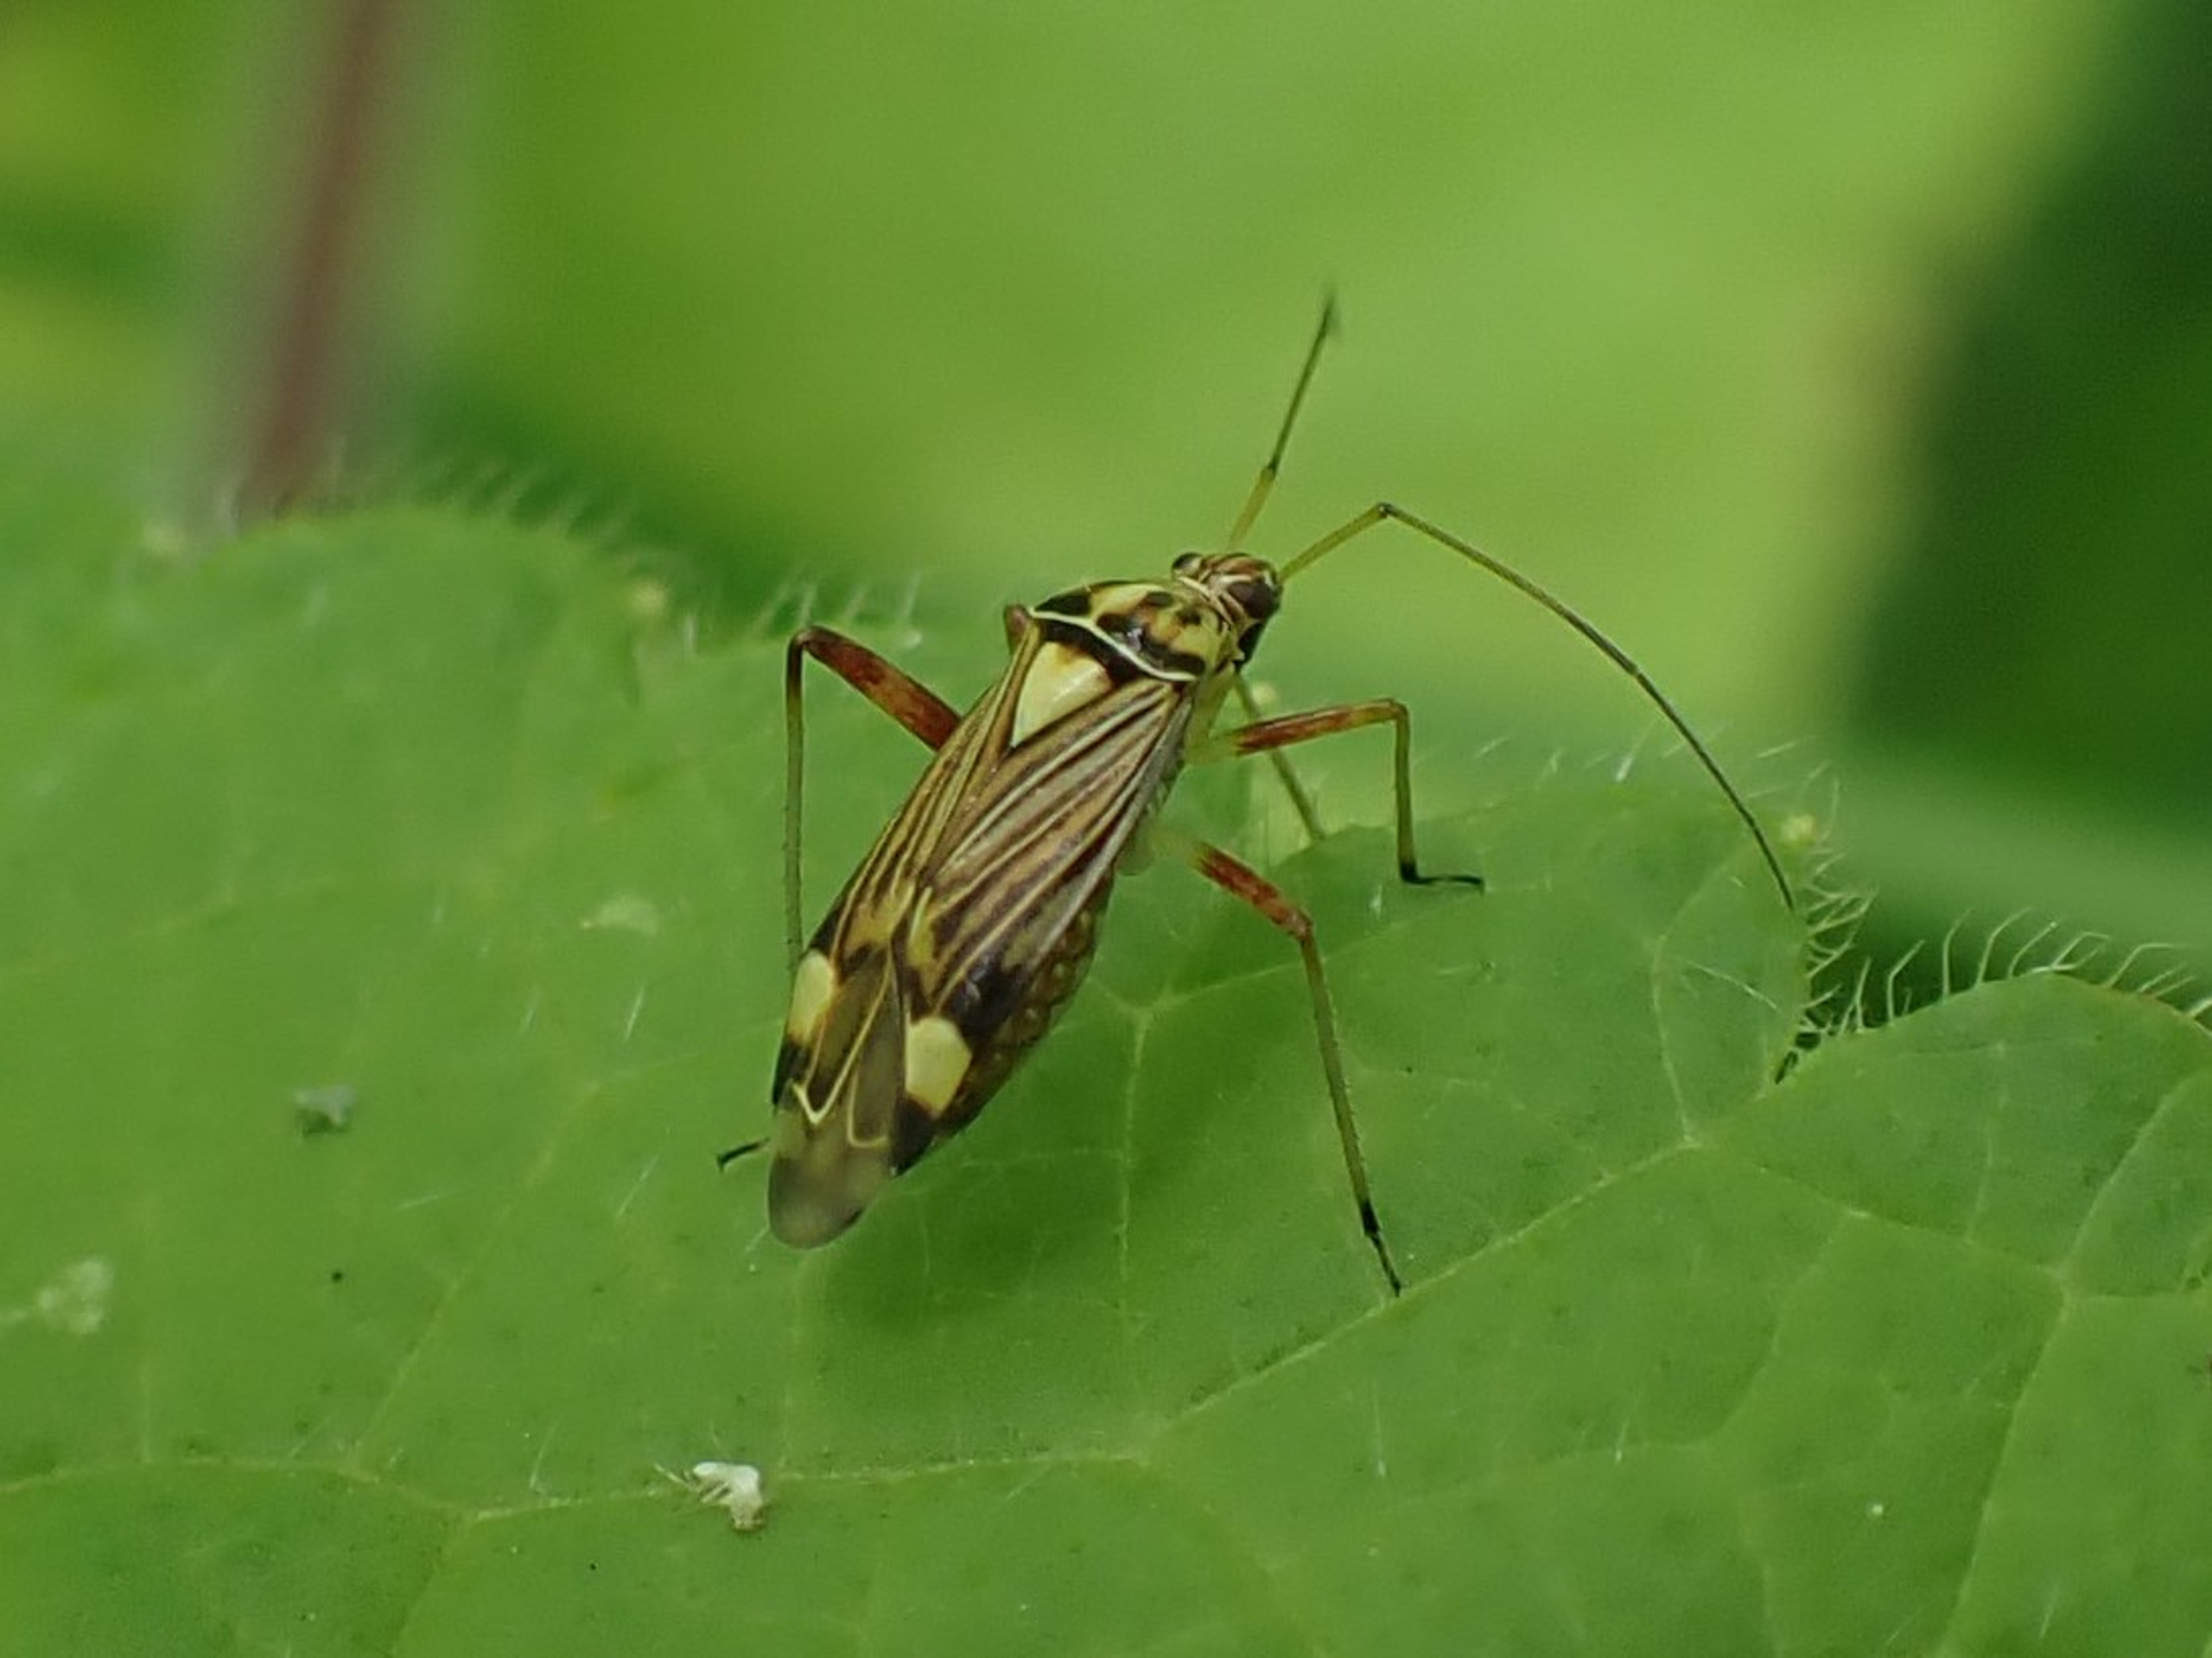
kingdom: Animalia
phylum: Arthropoda
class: Insecta
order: Hemiptera
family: Miridae
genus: Rhabdomiris
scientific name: Rhabdomiris striatellus
